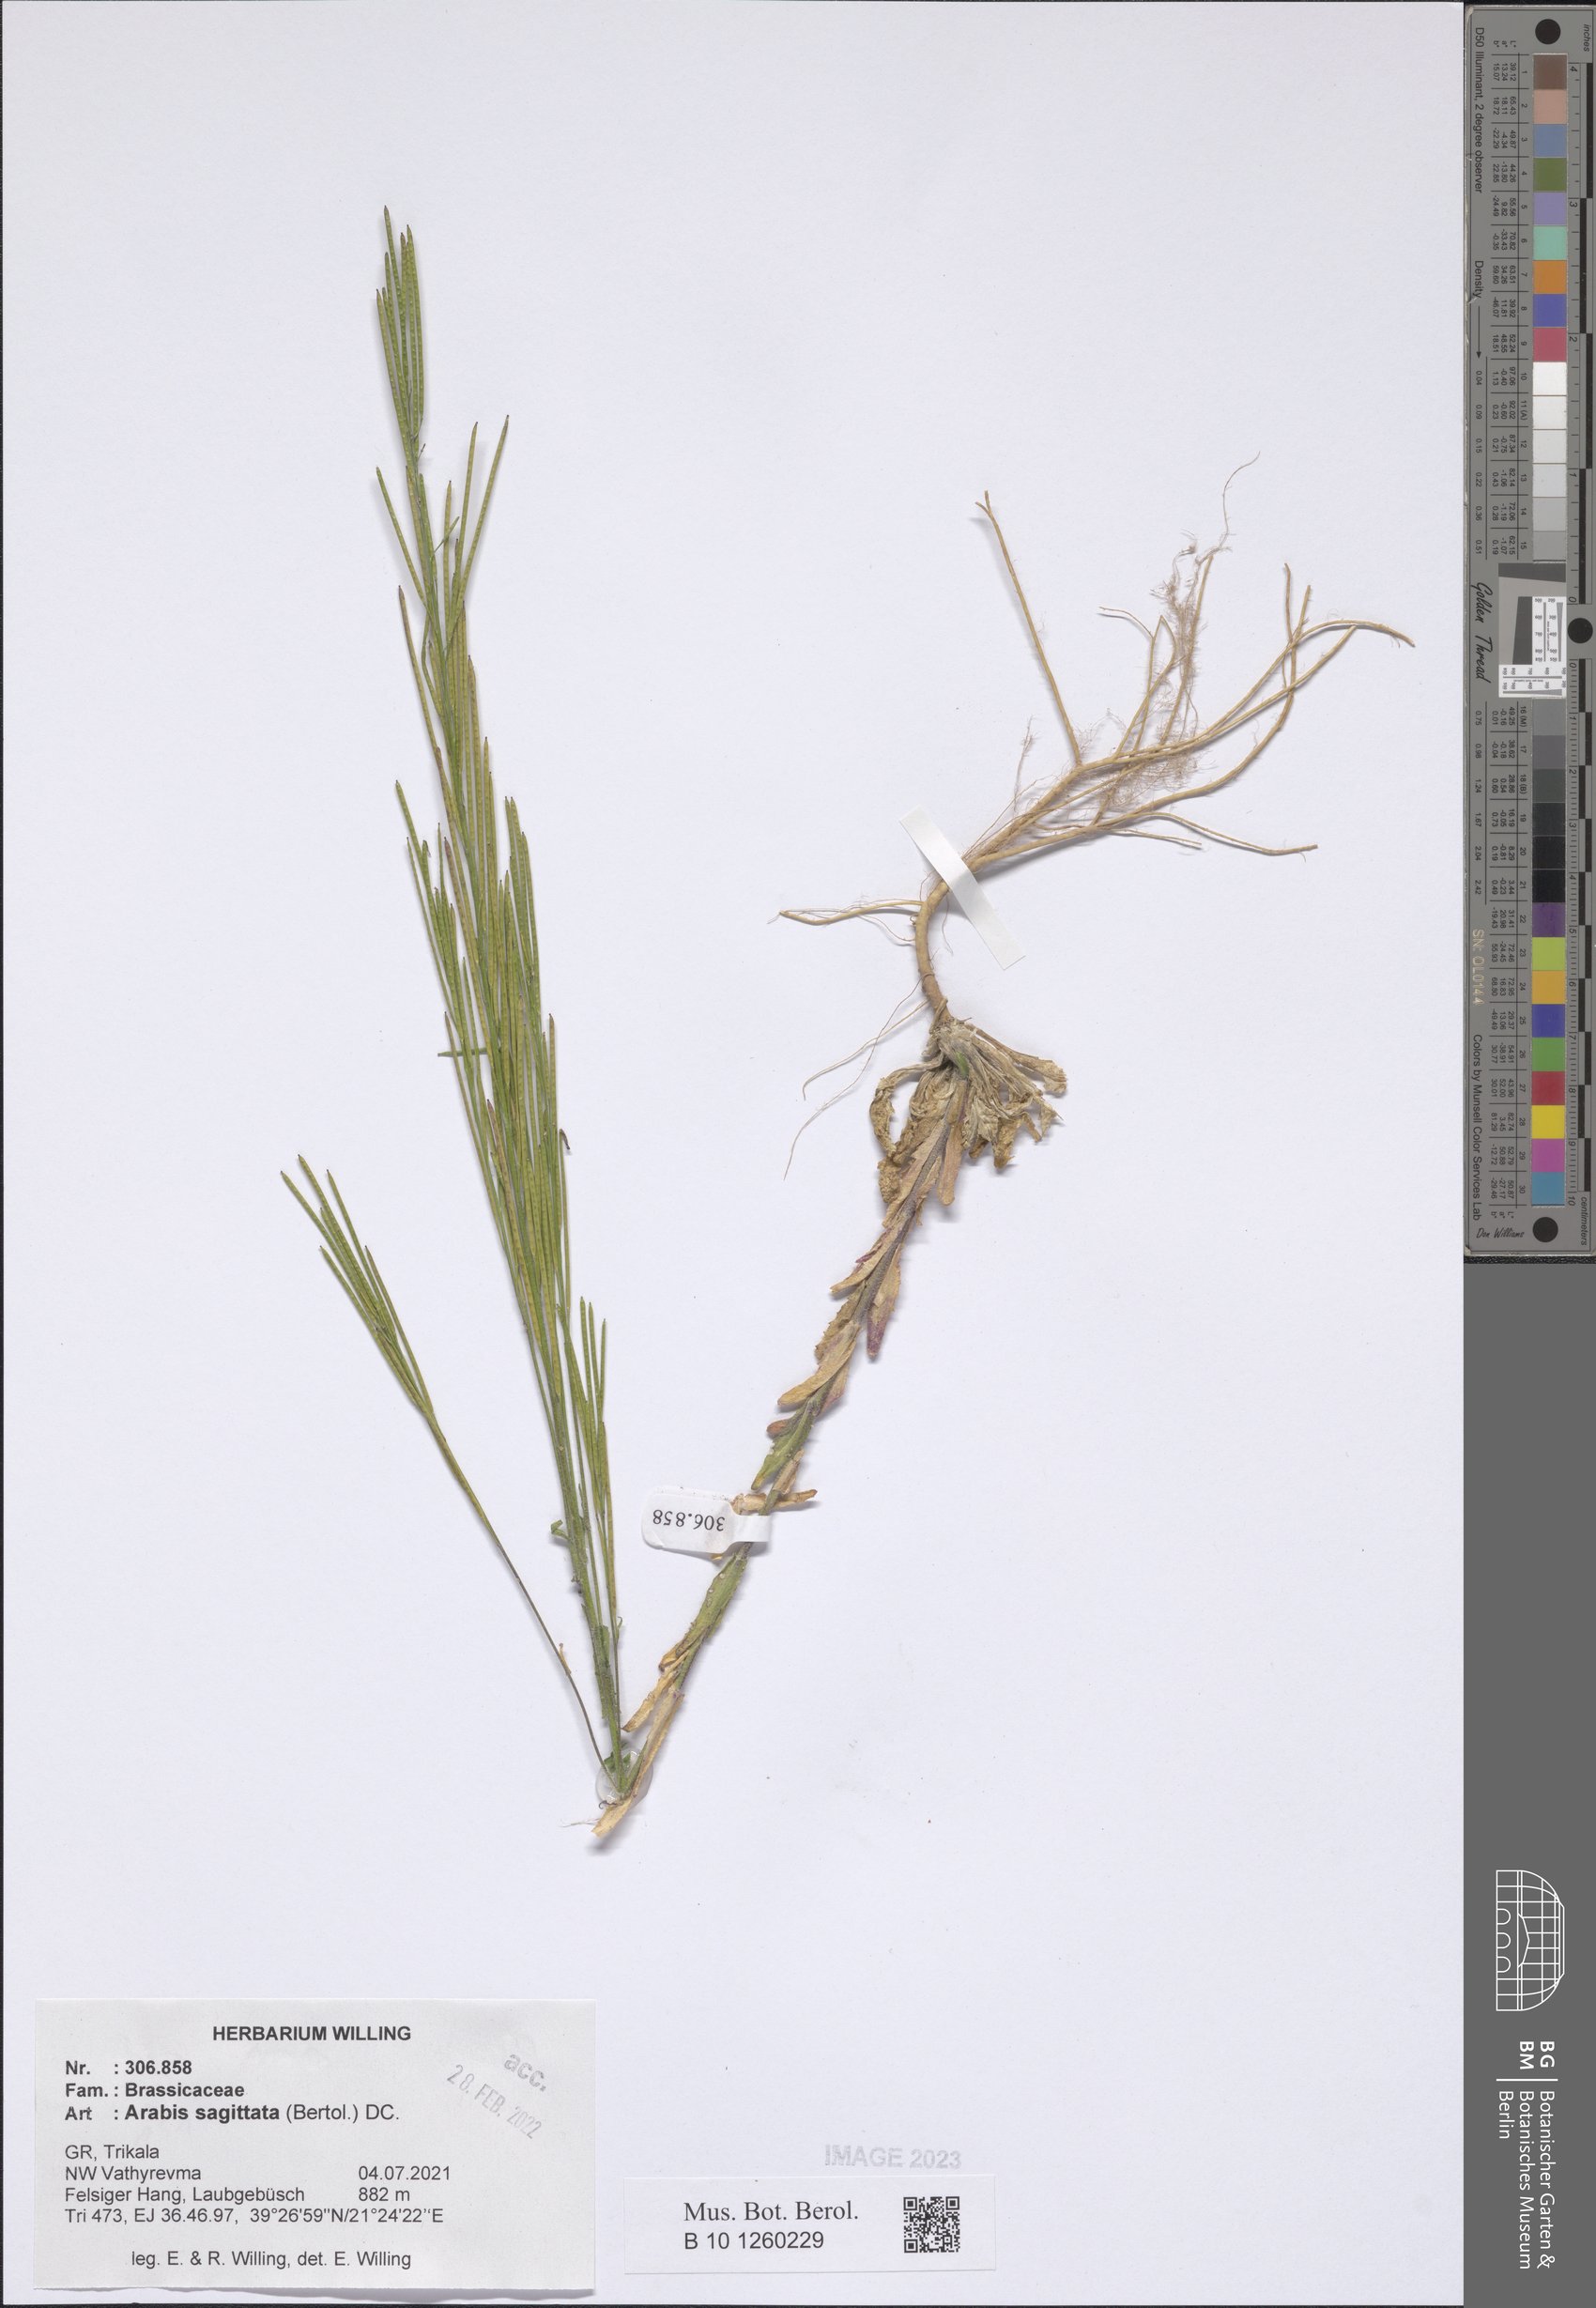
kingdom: Plantae
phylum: Tracheophyta
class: Magnoliopsida
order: Brassicales
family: Brassicaceae
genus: Arabis
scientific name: Arabis sagittata
